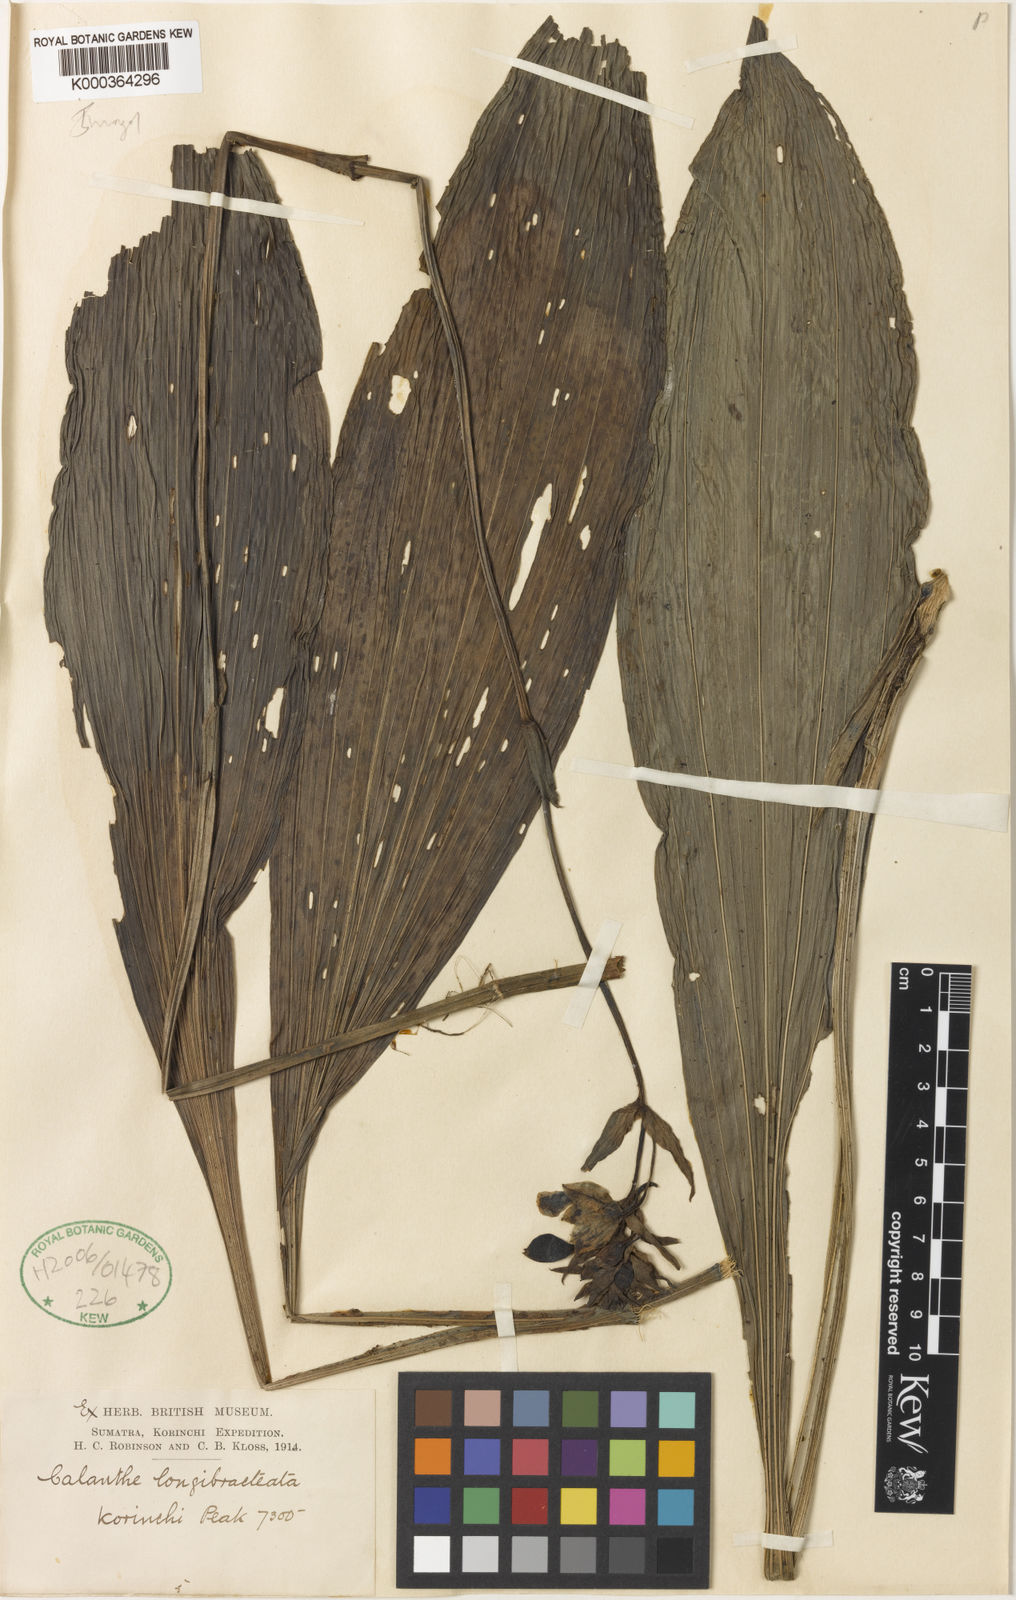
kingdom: Plantae
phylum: Tracheophyta
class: Liliopsida
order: Asparagales
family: Orchidaceae
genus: Calanthe
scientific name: Calanthe longibracteata
